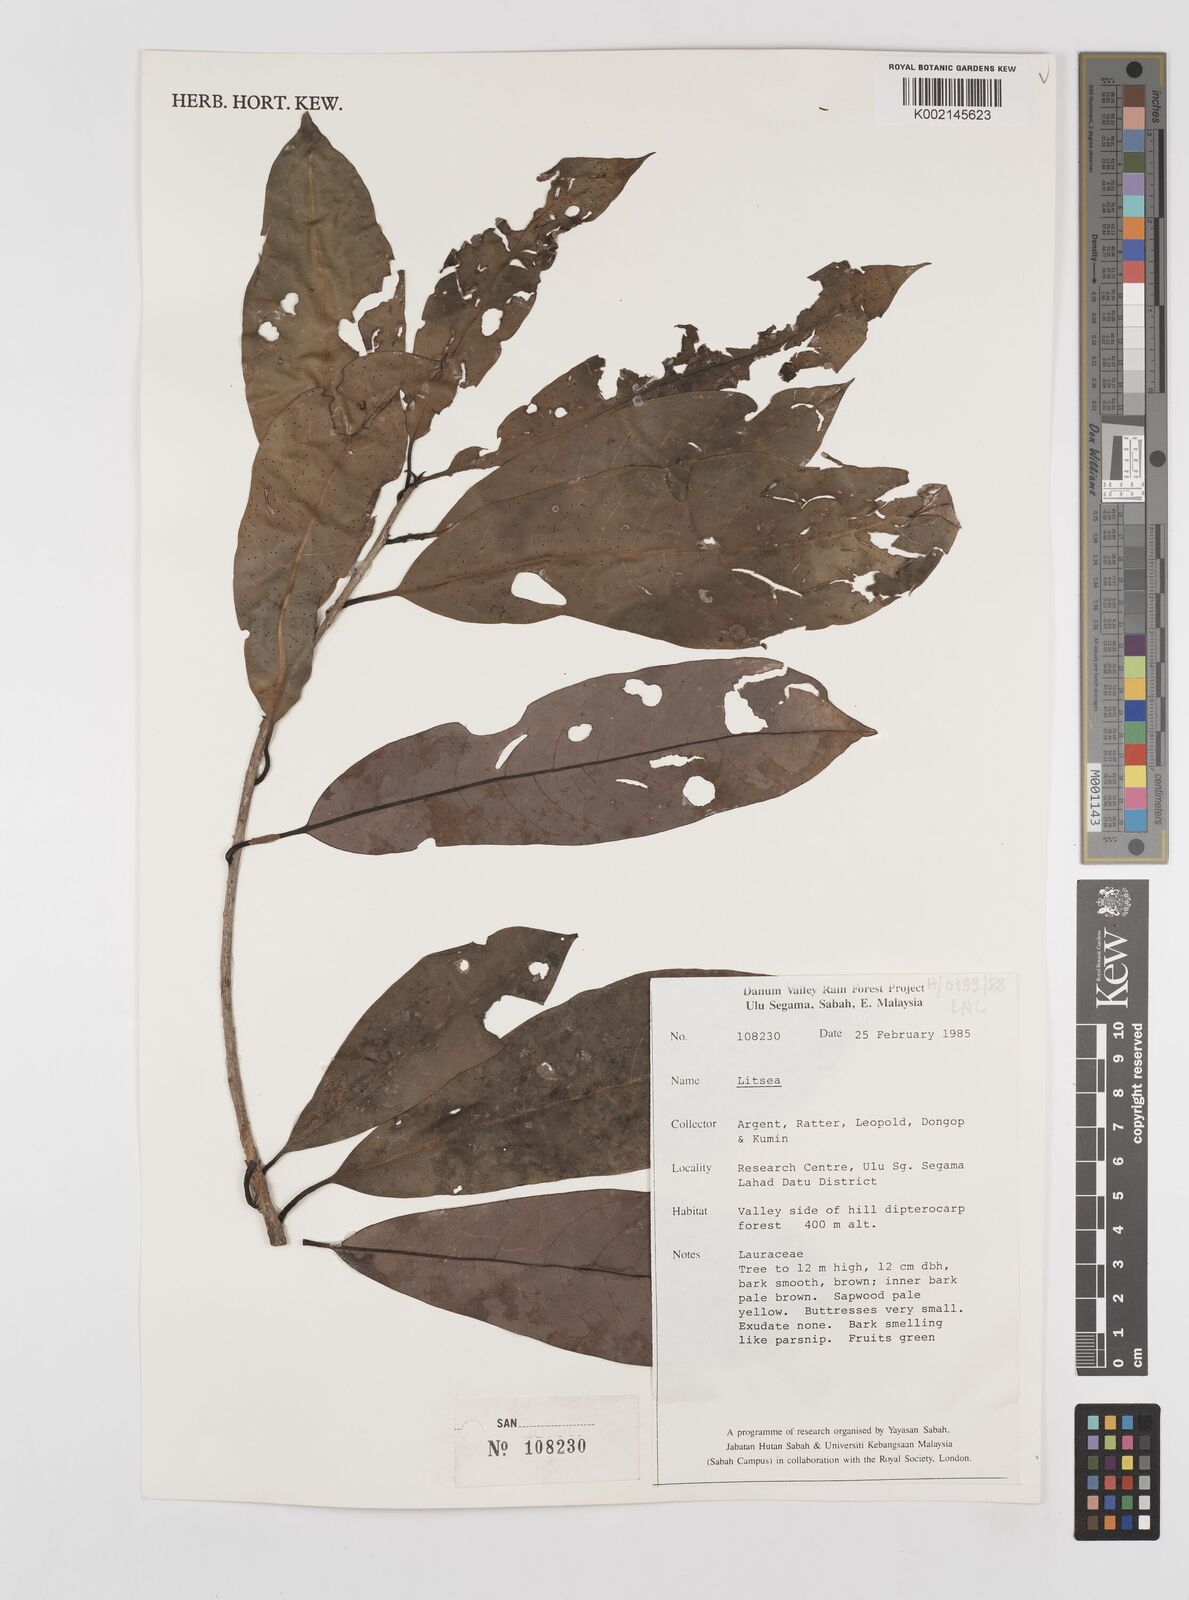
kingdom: Plantae
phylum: Tracheophyta
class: Magnoliopsida
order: Laurales
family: Lauraceae
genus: Litsea
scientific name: Litsea
